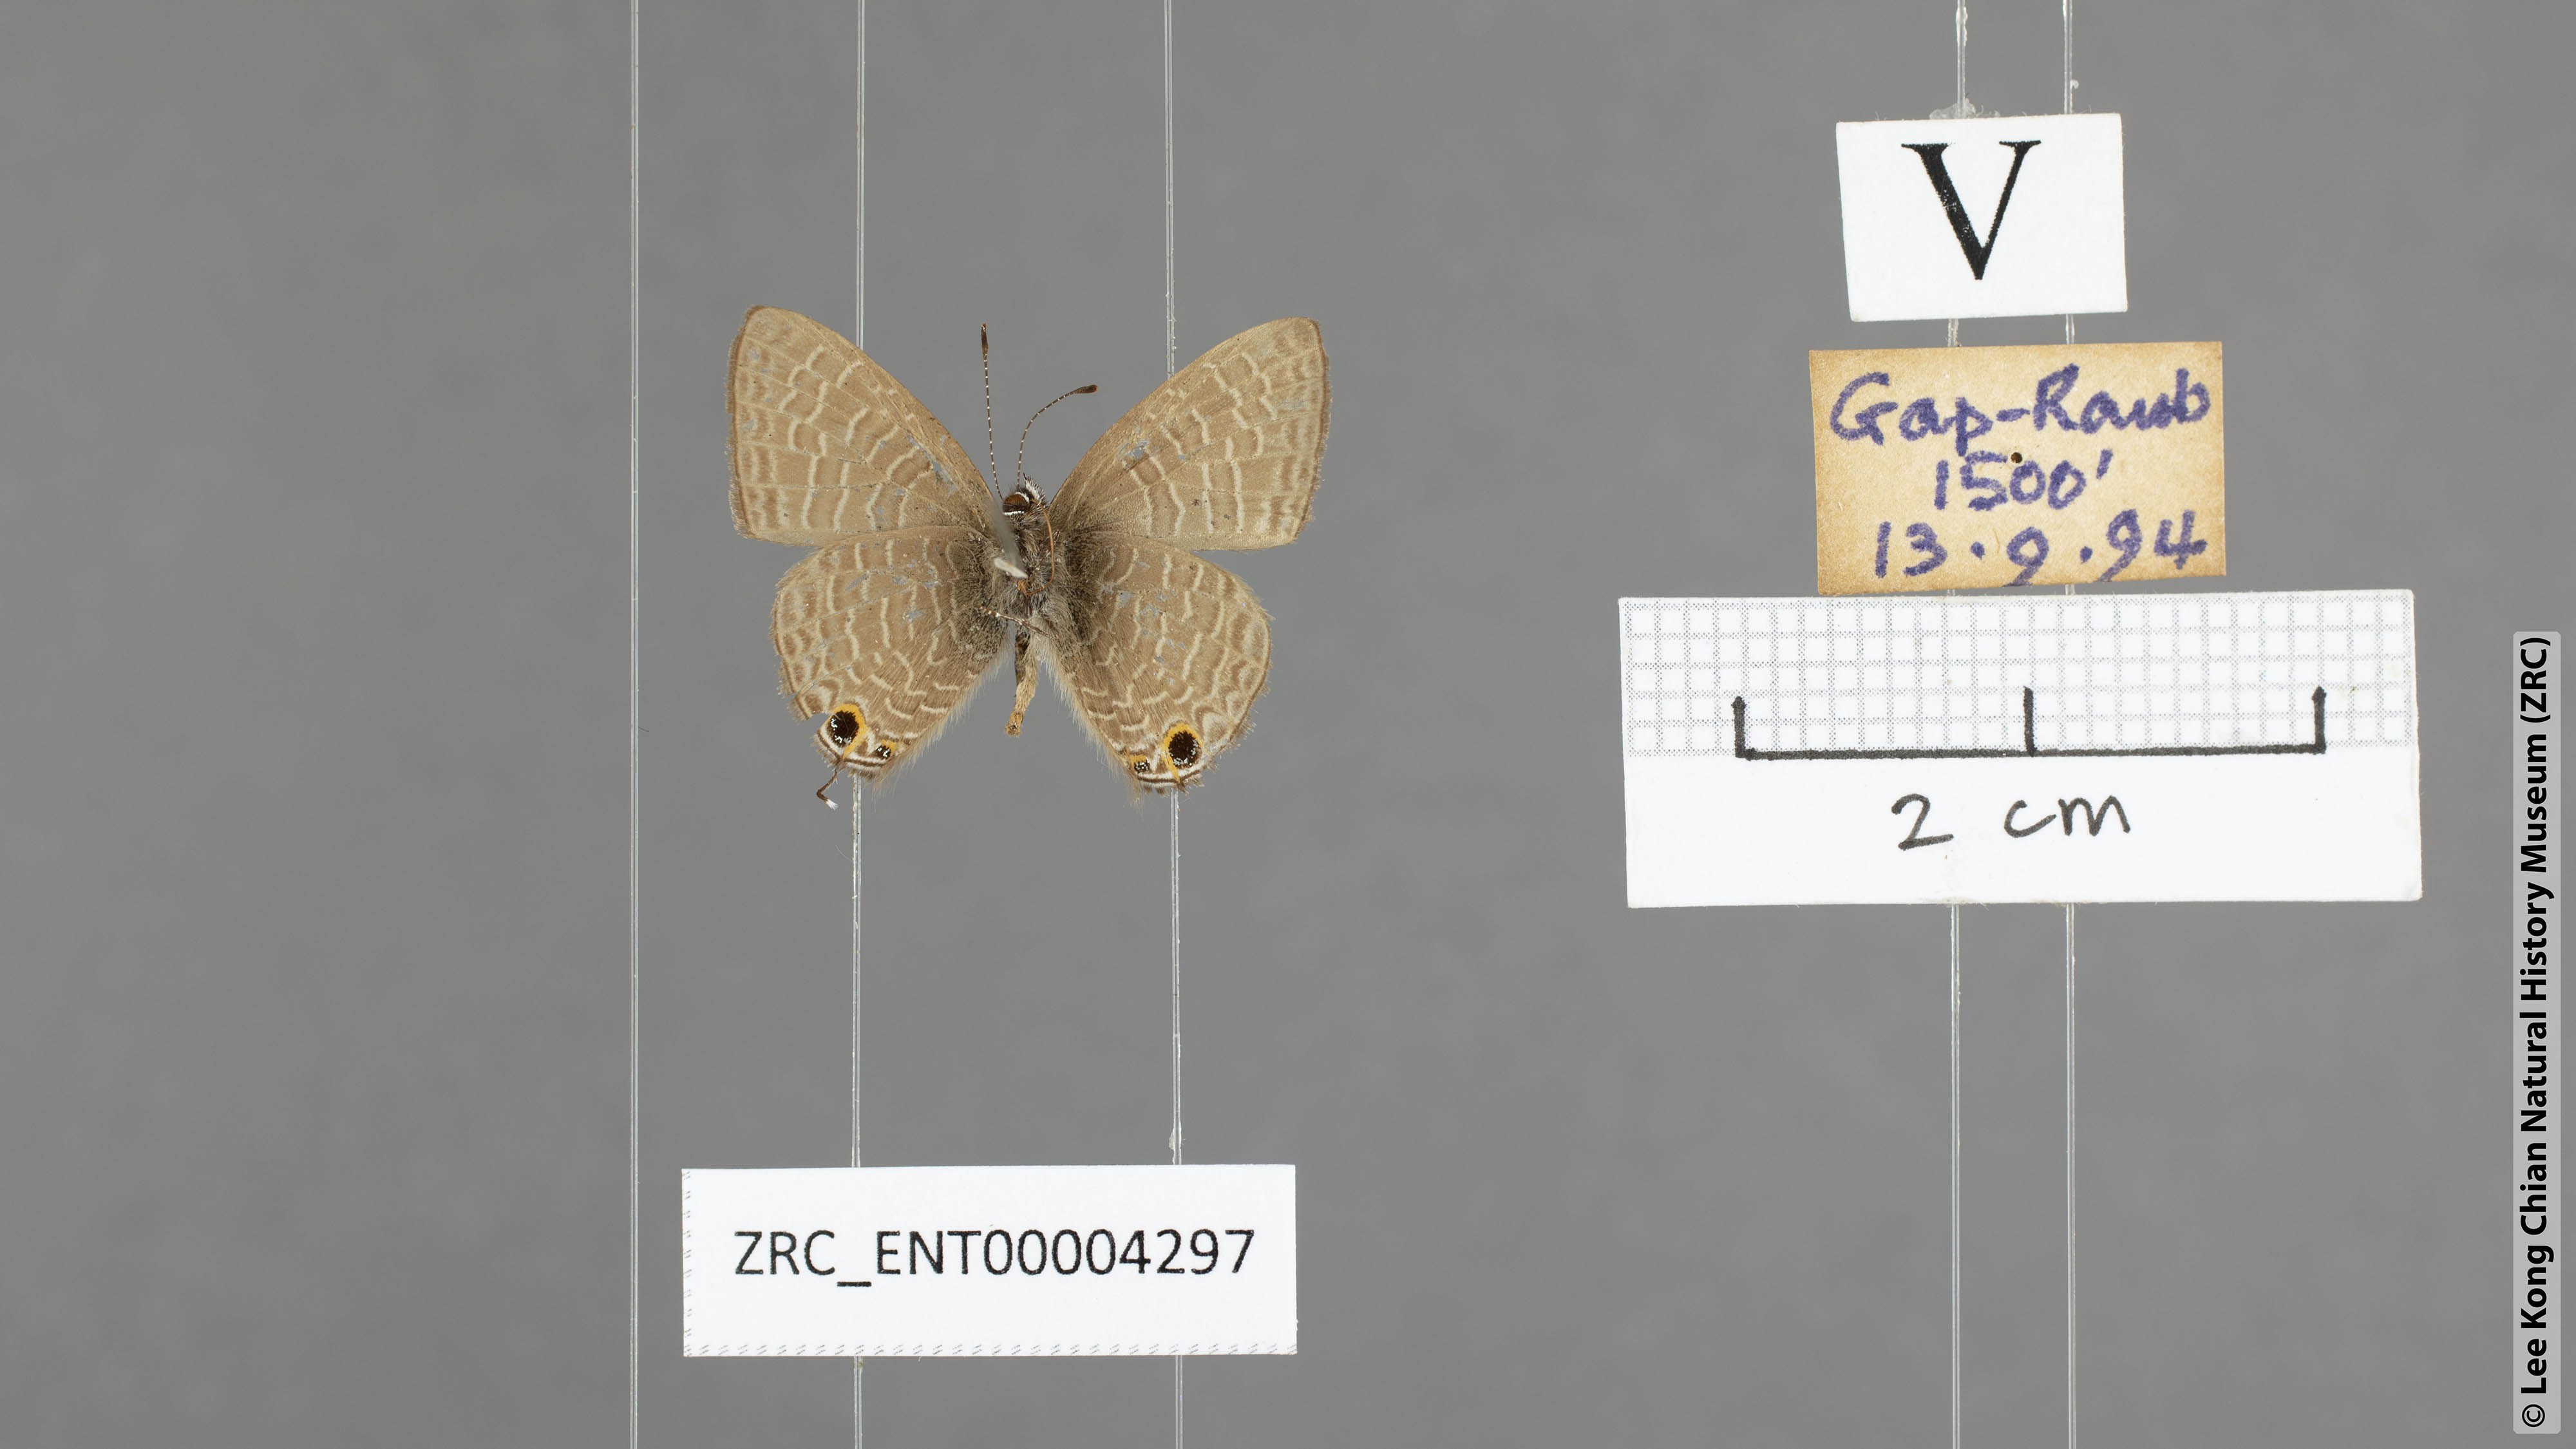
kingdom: Animalia
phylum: Arthropoda
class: Insecta
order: Lepidoptera
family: Lycaenidae
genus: Ionolyce
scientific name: Ionolyce helicon
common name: Pointed line blue
